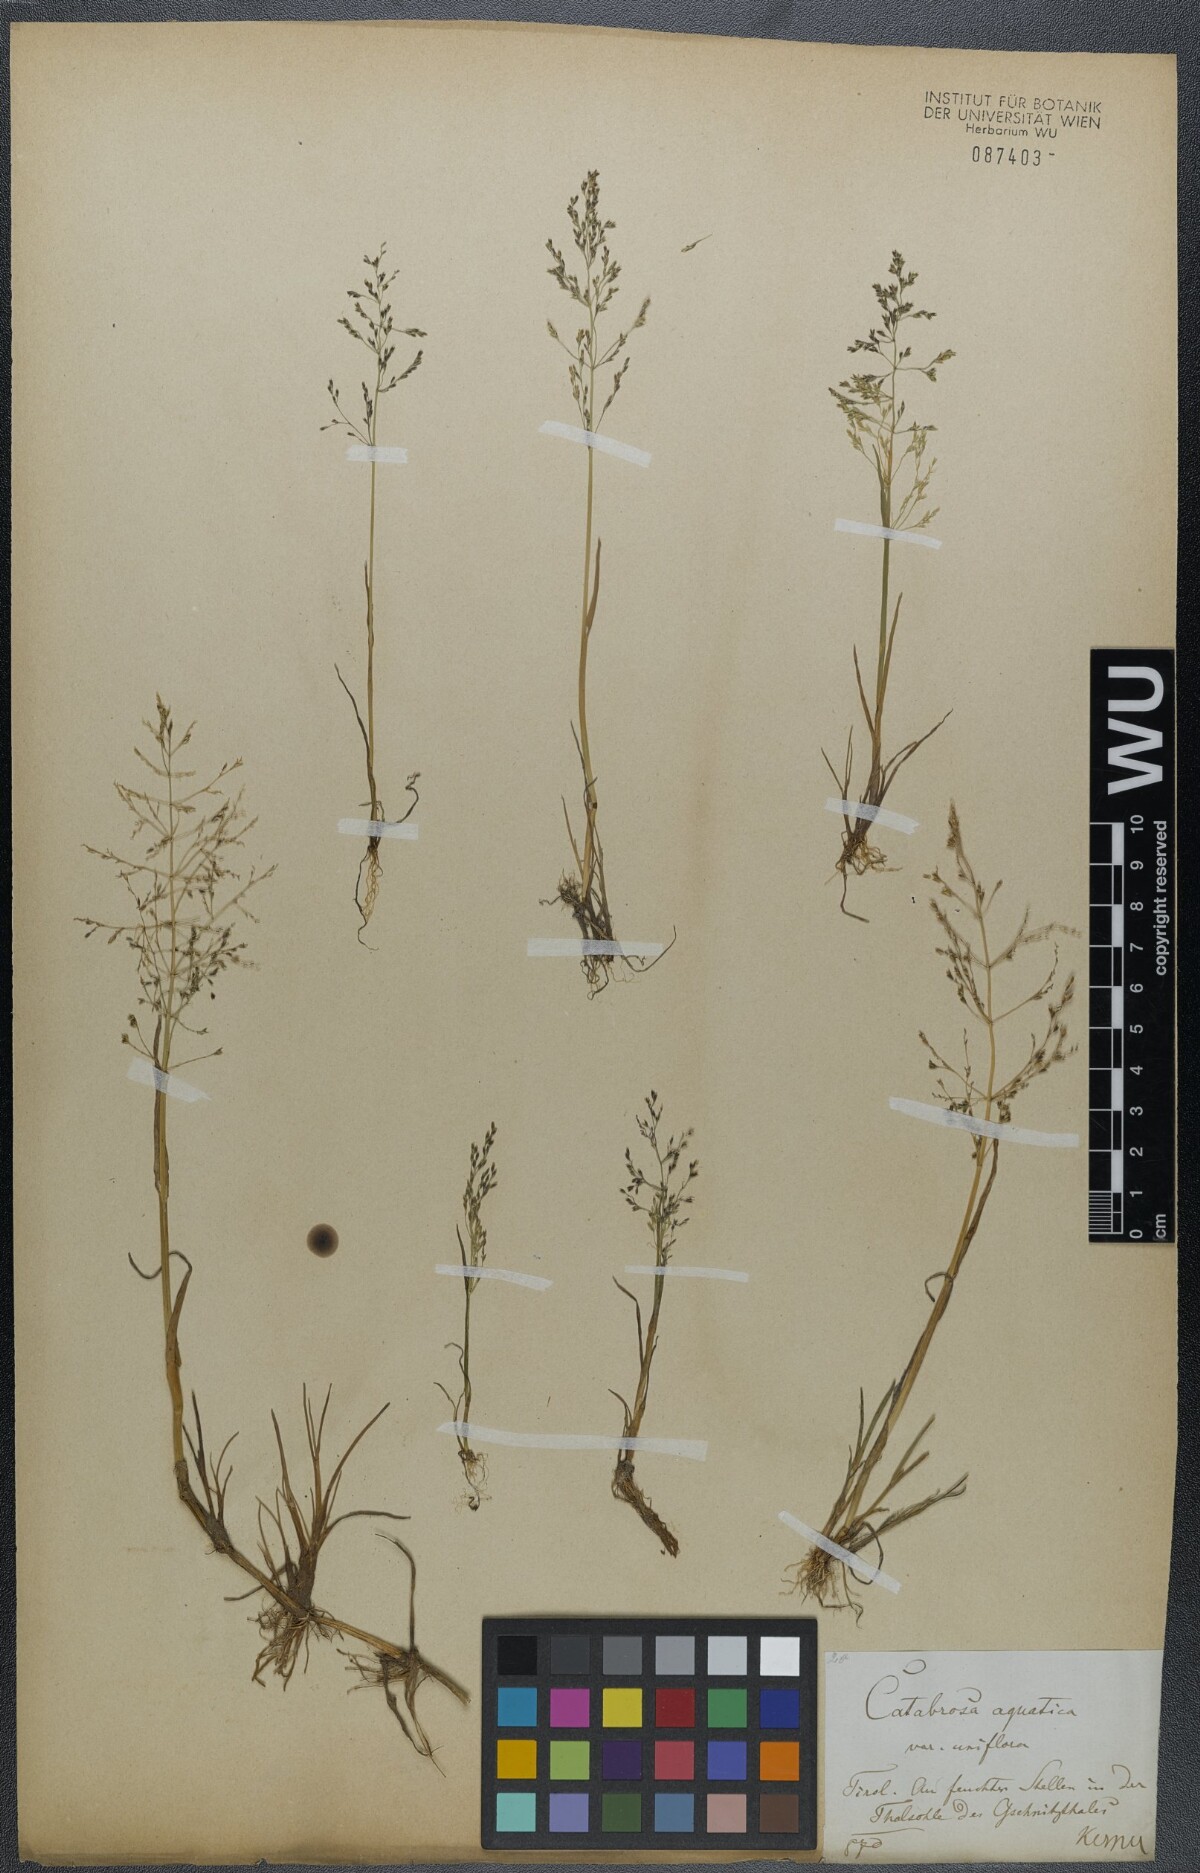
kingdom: Plantae
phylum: Tracheophyta
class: Liliopsida
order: Poales
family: Poaceae
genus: Catabrosa
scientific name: Catabrosa aquatica
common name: Whorl-grass
